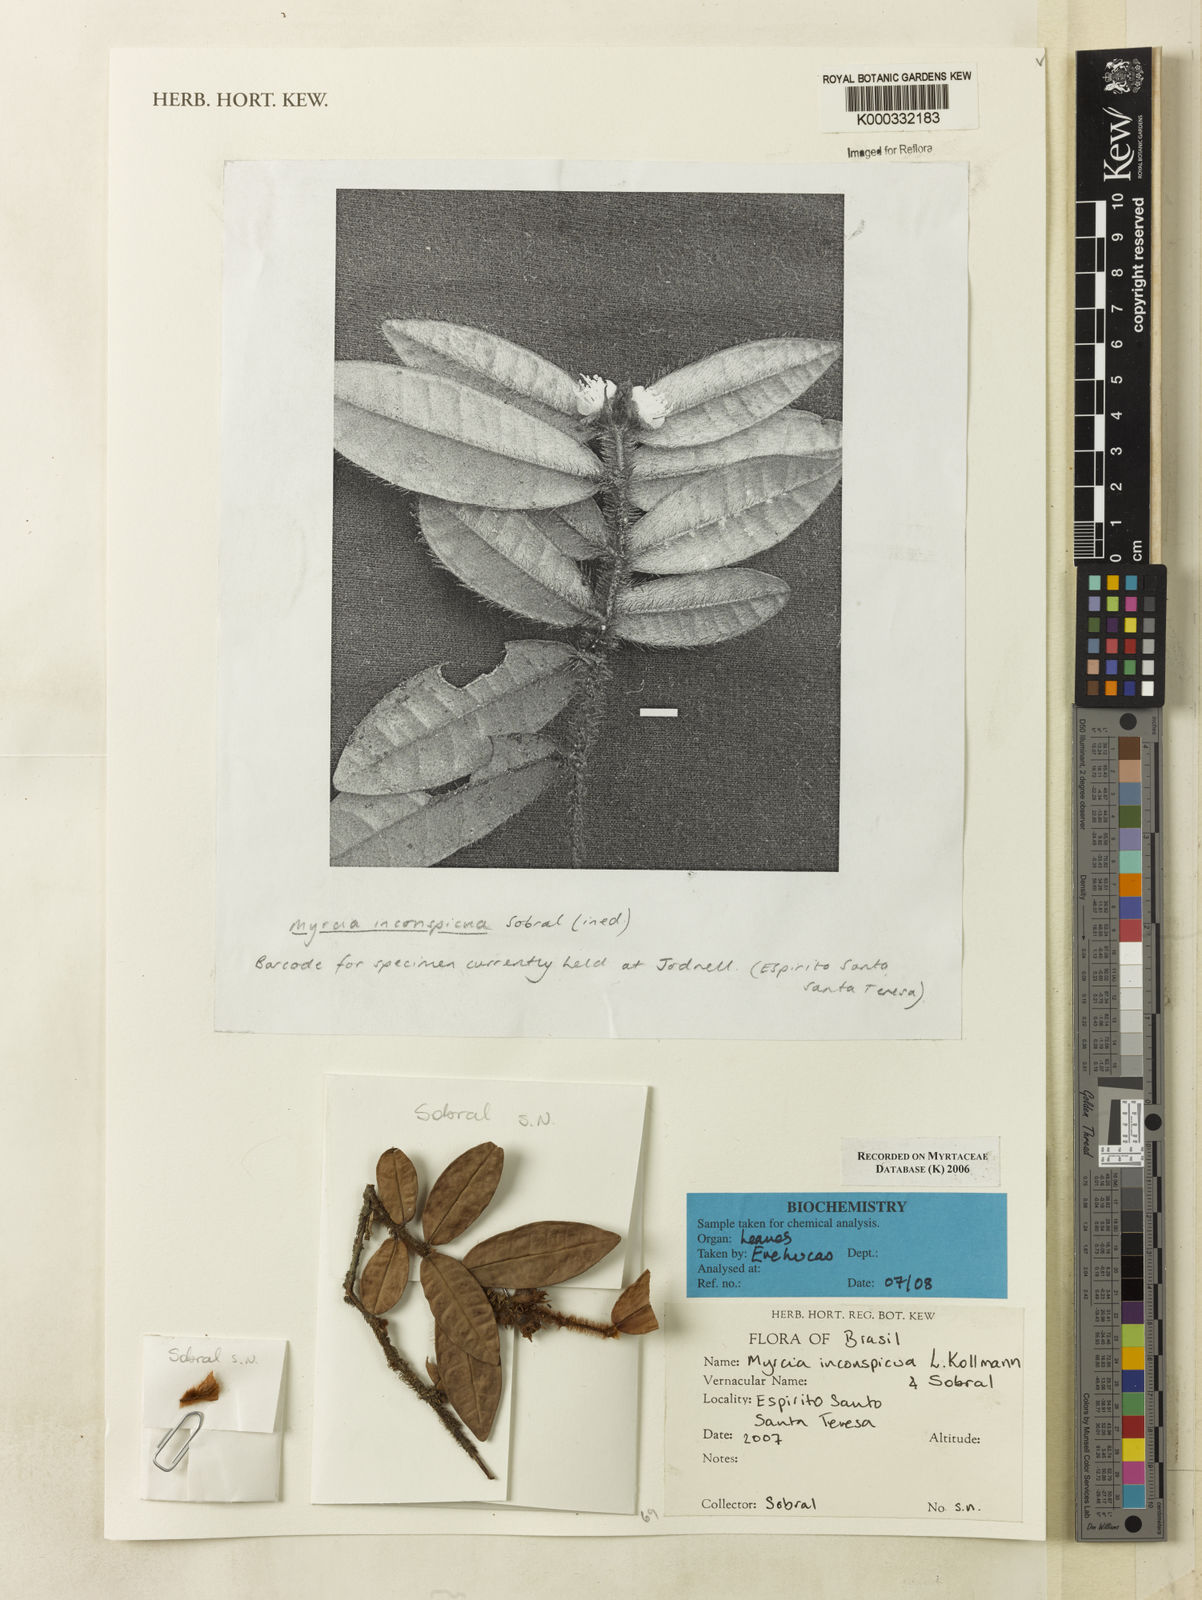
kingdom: Plantae
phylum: Tracheophyta
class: Magnoliopsida
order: Myrtales
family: Myrtaceae
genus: Myrcia
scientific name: Myrcia inconspicua
